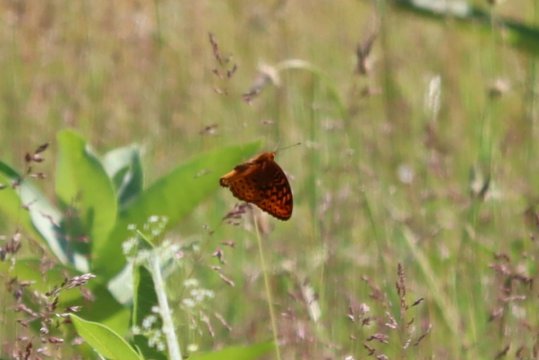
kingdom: Animalia
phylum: Arthropoda
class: Insecta
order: Lepidoptera
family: Nymphalidae
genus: Speyeria
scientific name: Speyeria cybele
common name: Great Spangled Fritillary
